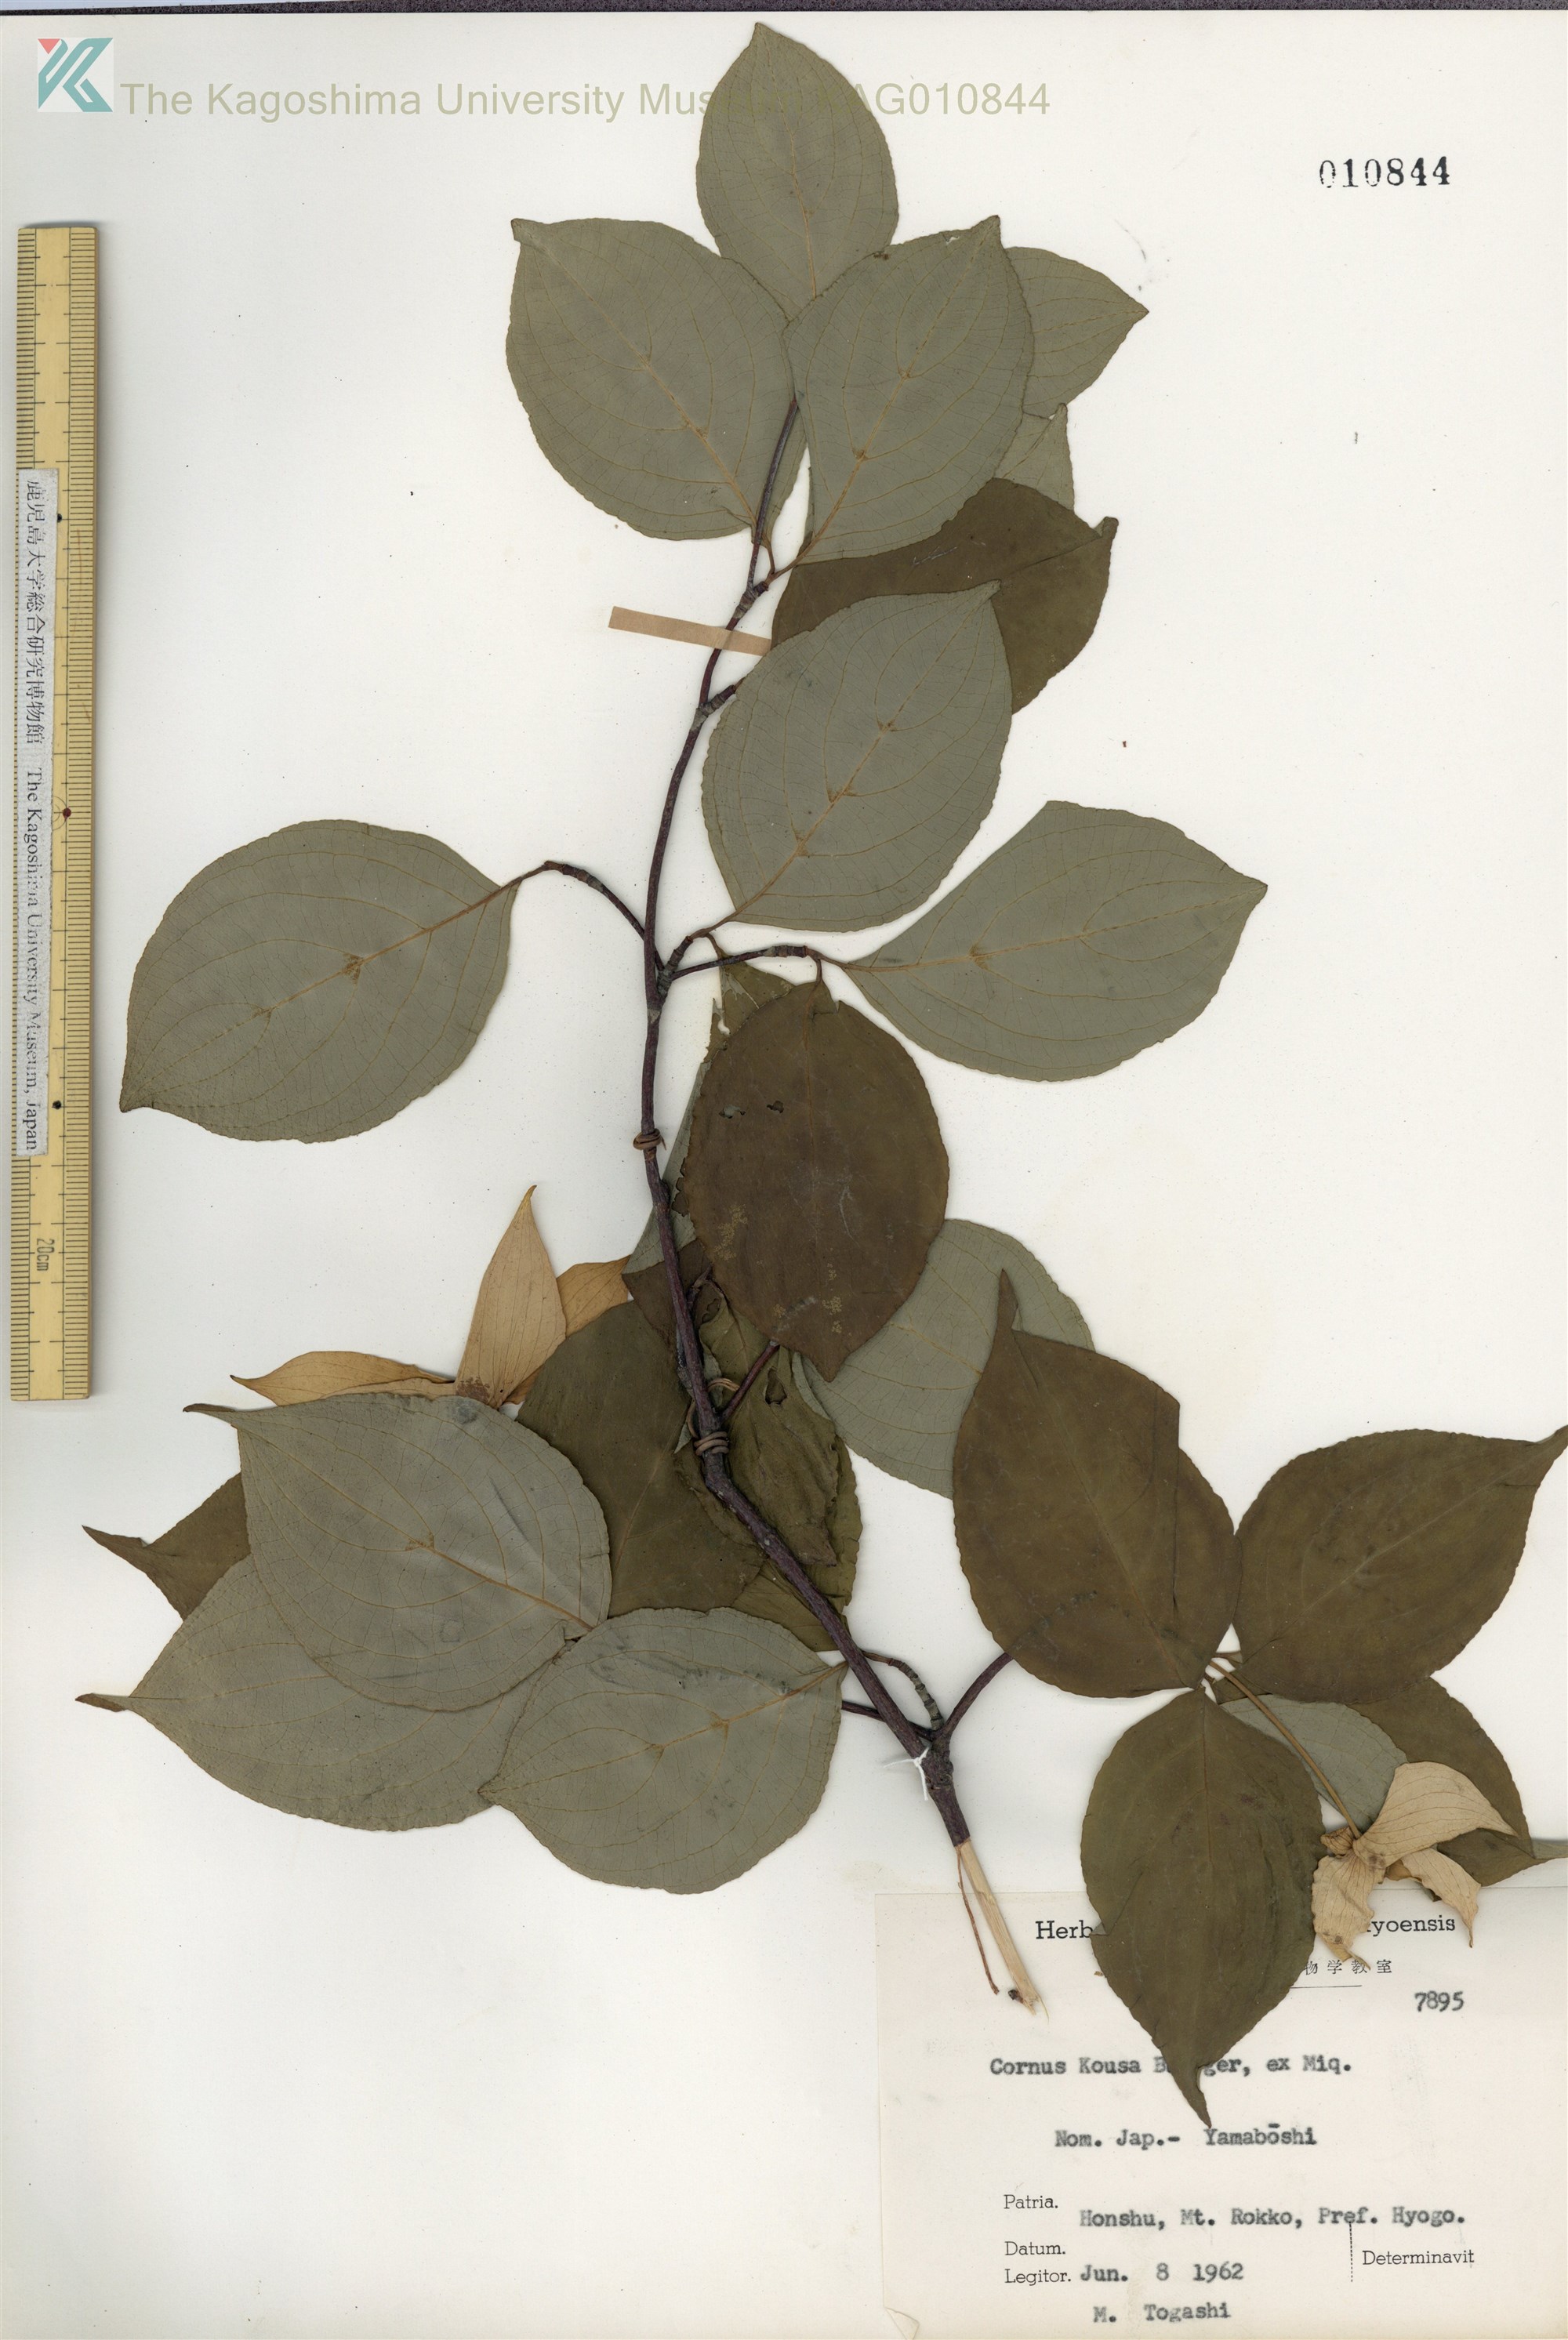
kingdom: Plantae
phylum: Tracheophyta
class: Magnoliopsida
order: Cornales
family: Cornaceae
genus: Cornus
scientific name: Cornus kousa
